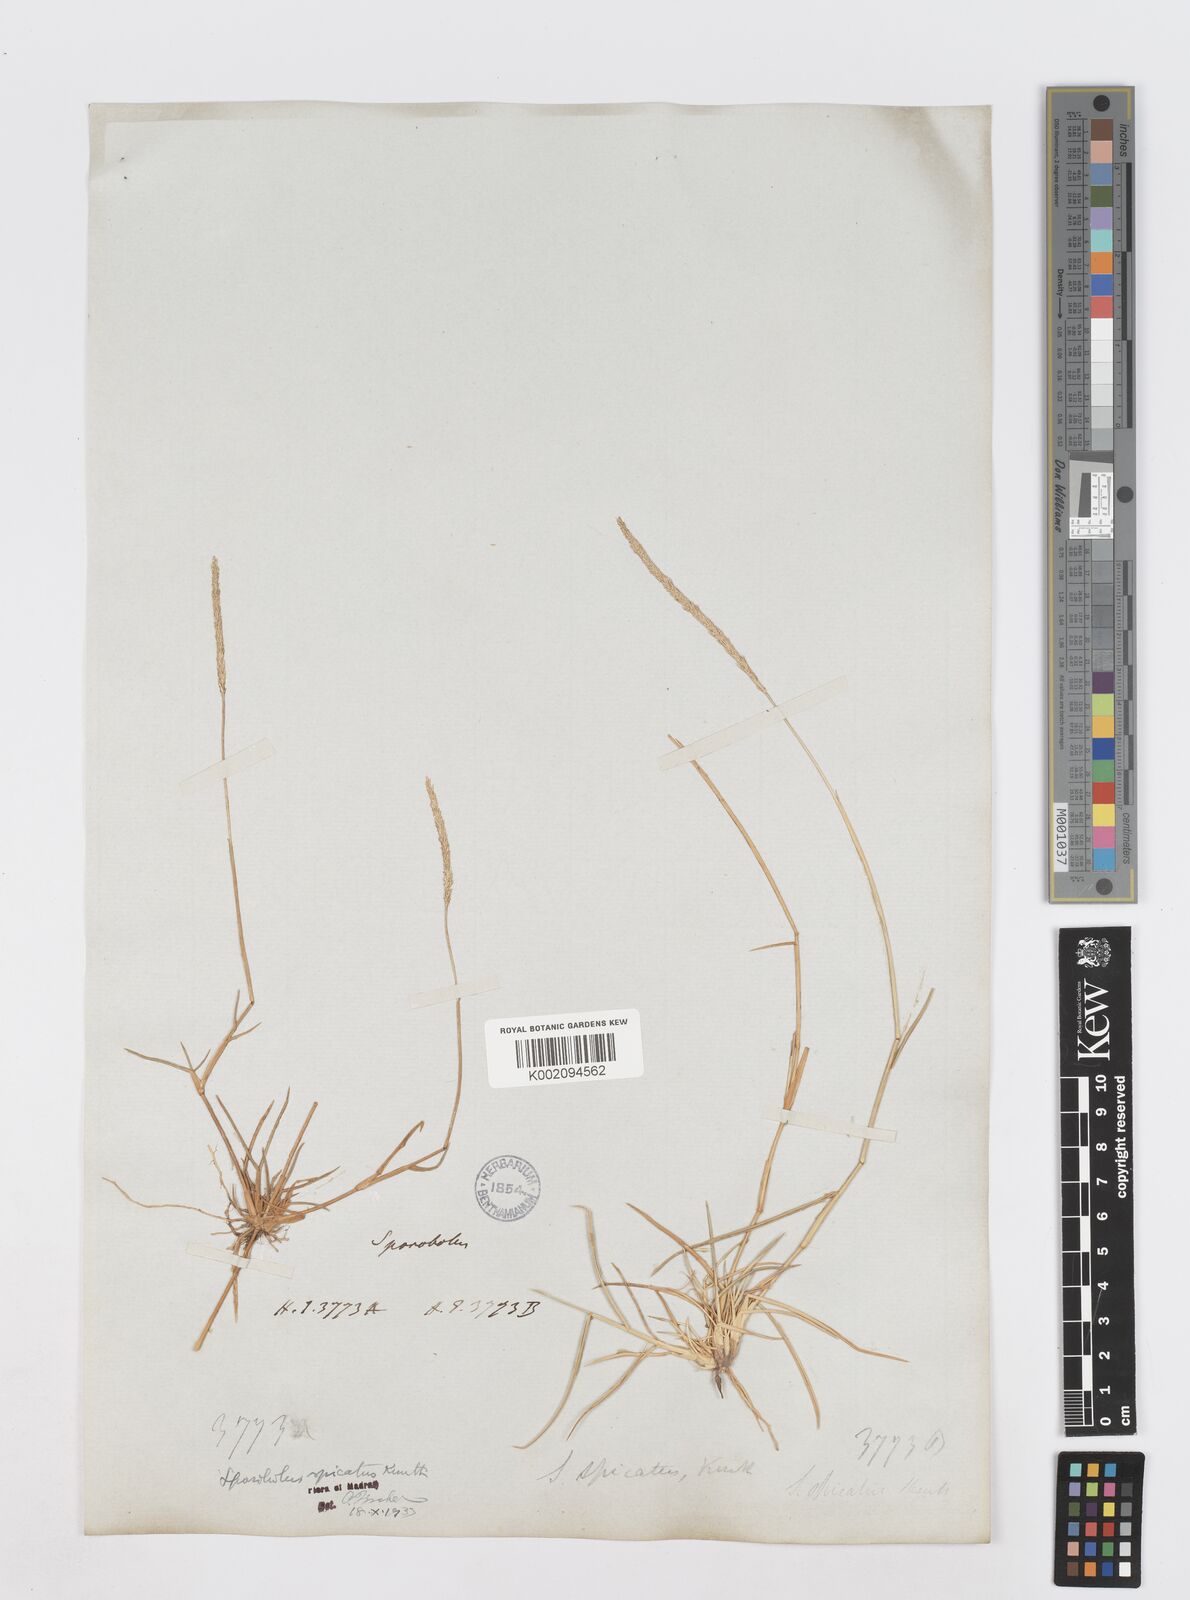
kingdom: Plantae
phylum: Tracheophyta
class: Liliopsida
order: Poales
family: Poaceae
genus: Sporobolus
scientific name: Sporobolus spicatus
